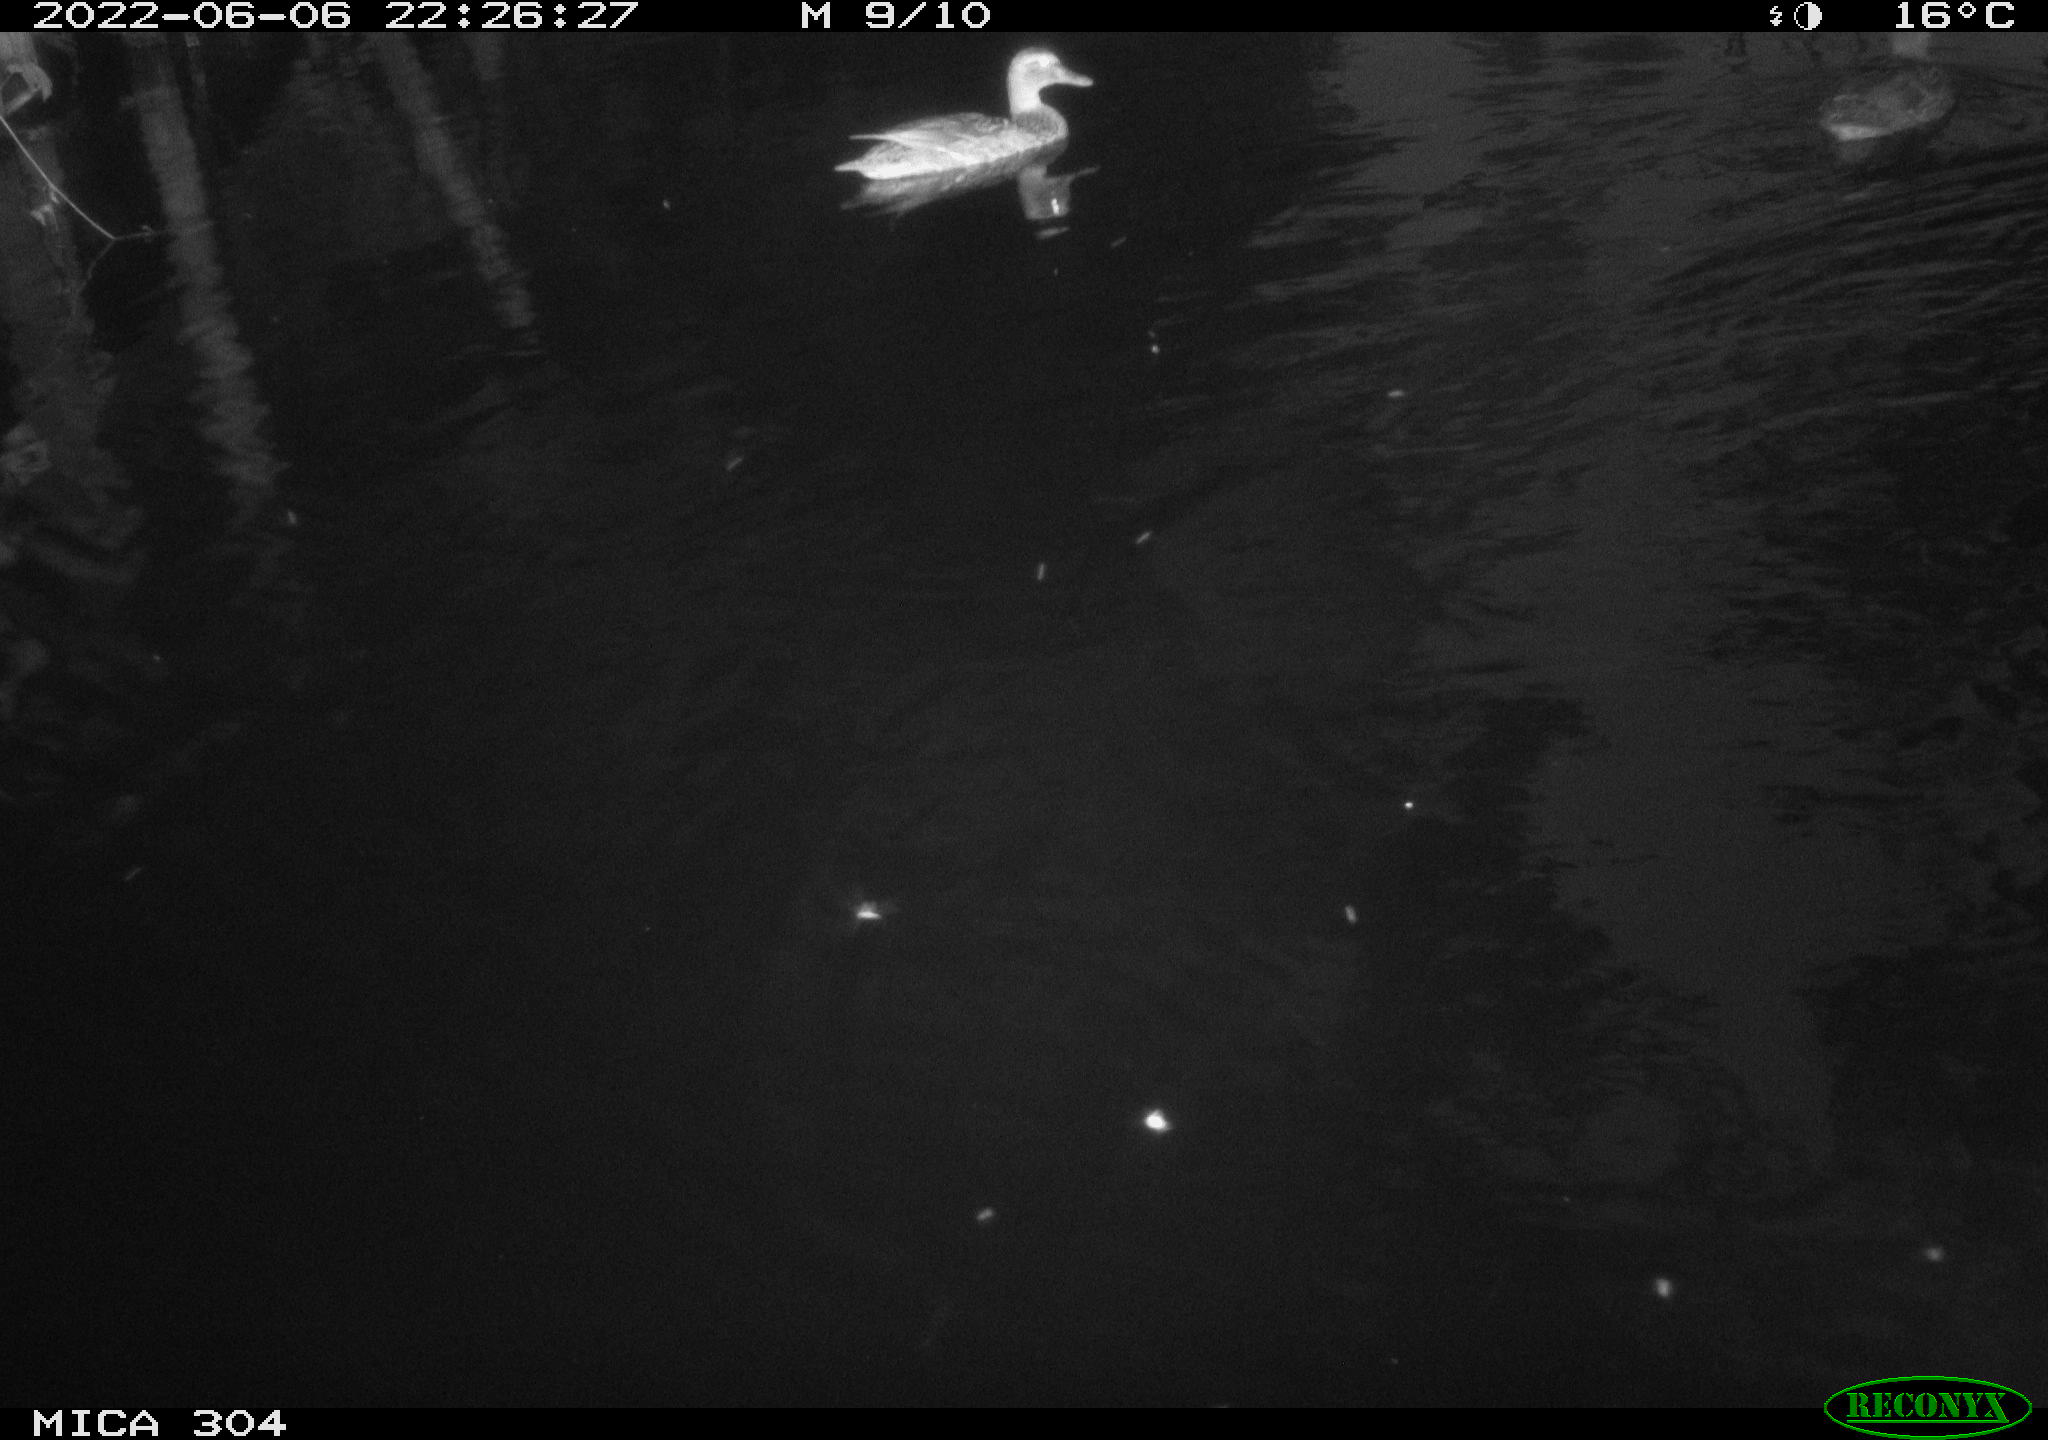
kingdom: Animalia
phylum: Chordata
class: Aves
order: Anseriformes
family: Anatidae
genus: Mareca
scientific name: Mareca strepera
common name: Gadwall
